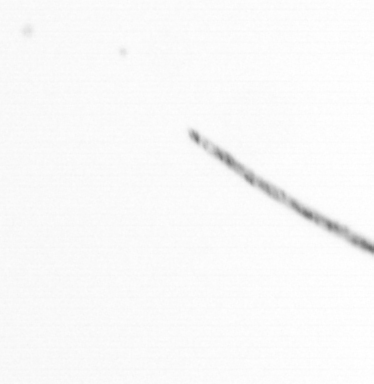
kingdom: Chromista
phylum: Ochrophyta
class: Bacillariophyceae
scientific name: Bacillariophyceae
